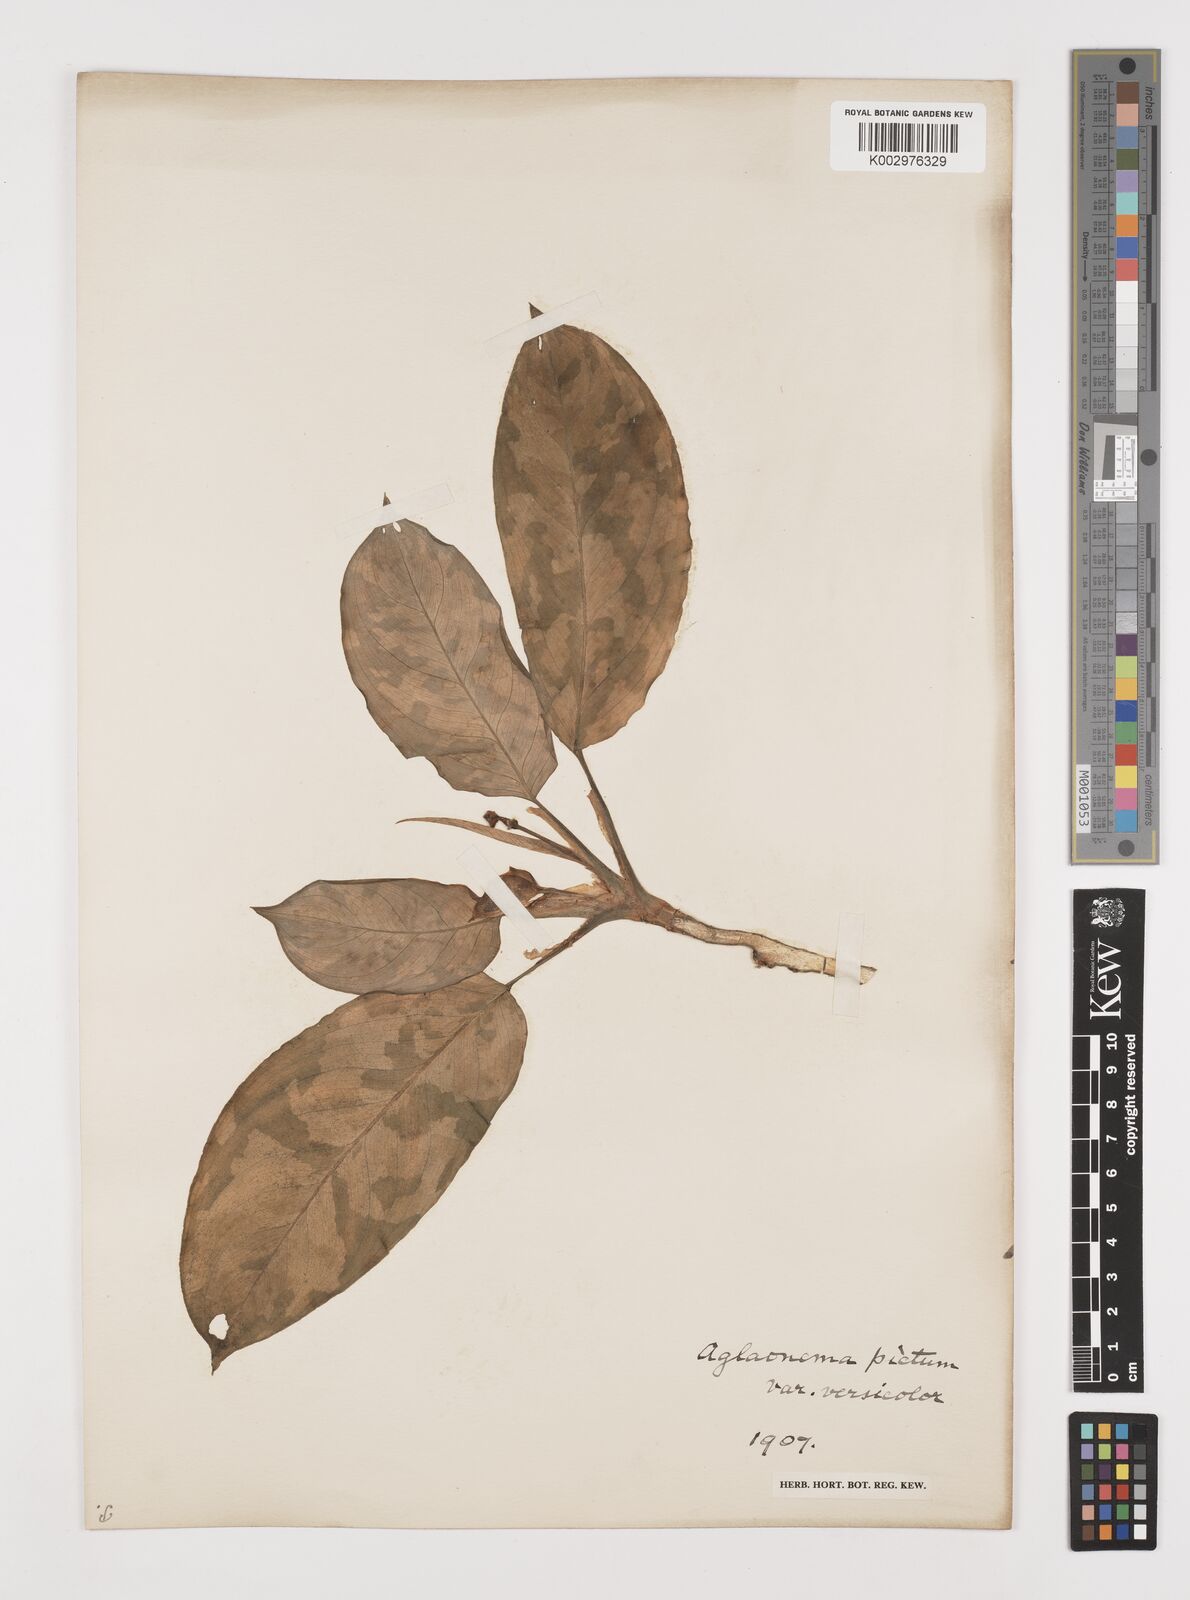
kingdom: Plantae
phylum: Tracheophyta
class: Liliopsida
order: Alismatales
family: Araceae
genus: Aglaonema
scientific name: Aglaonema pictum
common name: Aglaonema aroid
